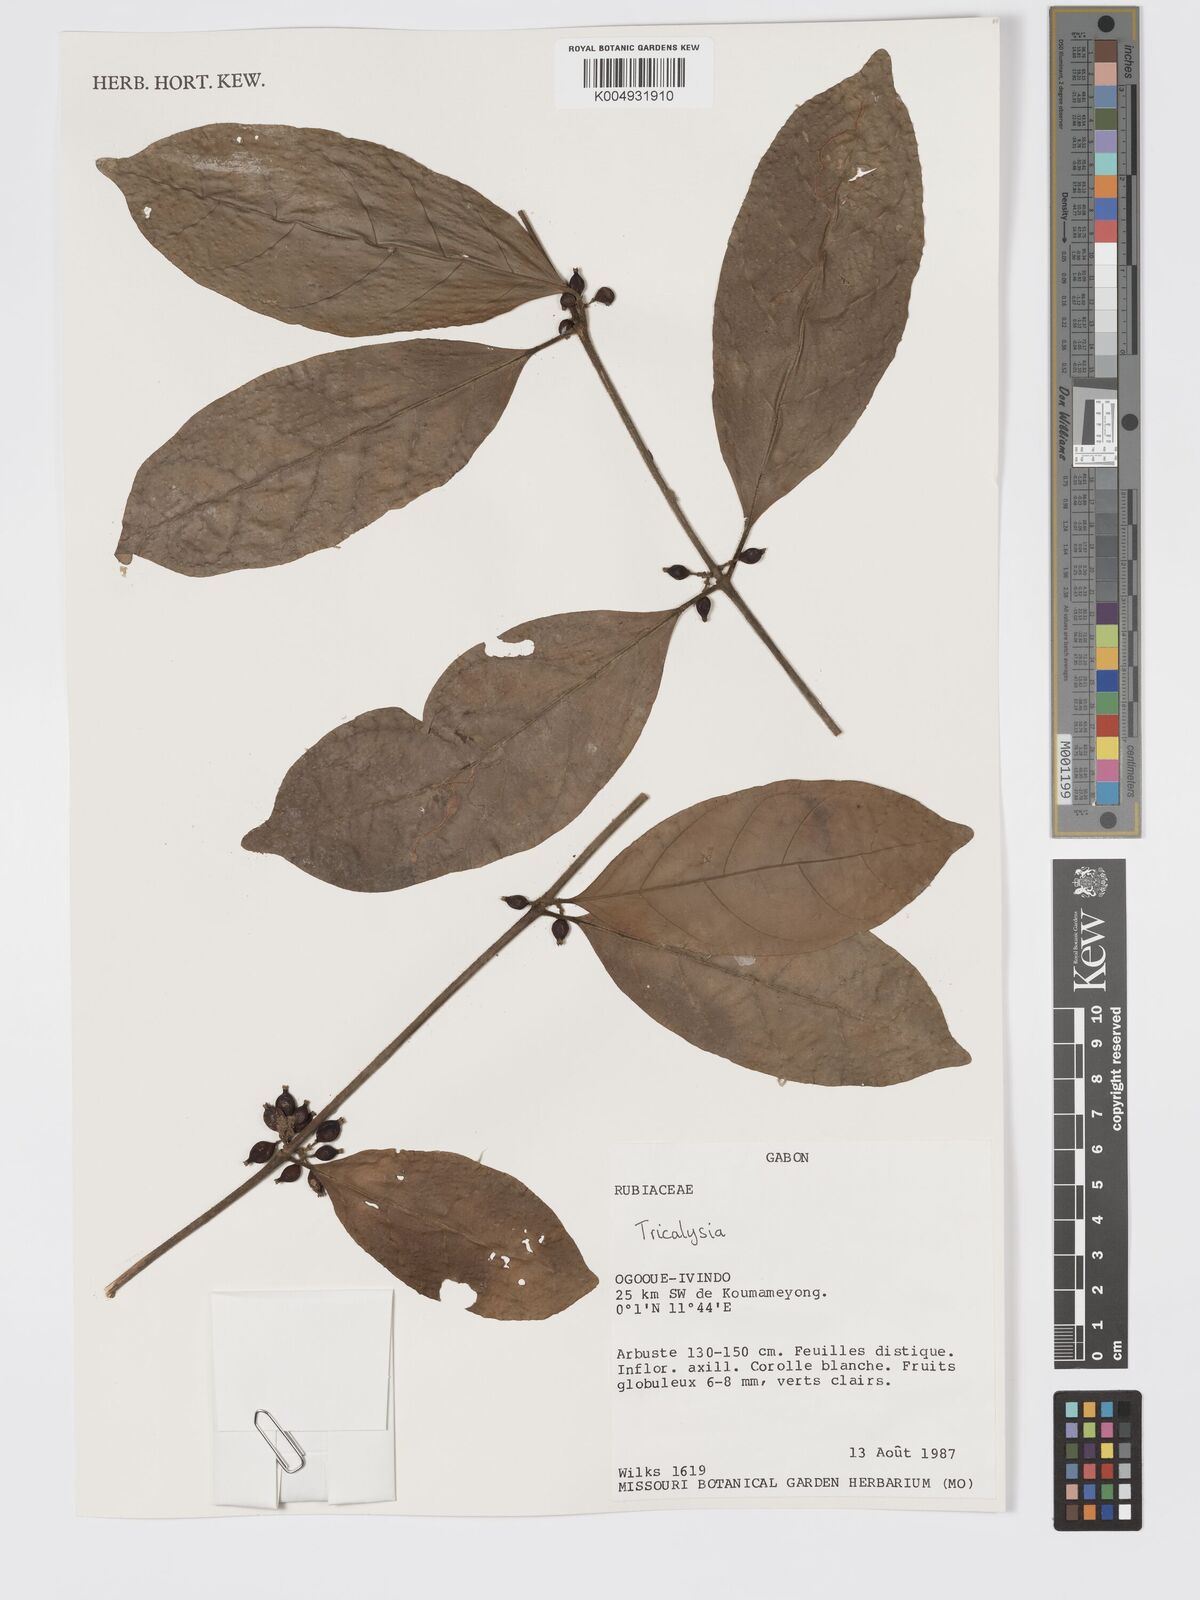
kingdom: Plantae
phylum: Tracheophyta
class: Magnoliopsida
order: Gentianales
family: Rubiaceae
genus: Tricalysia
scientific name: Tricalysia
